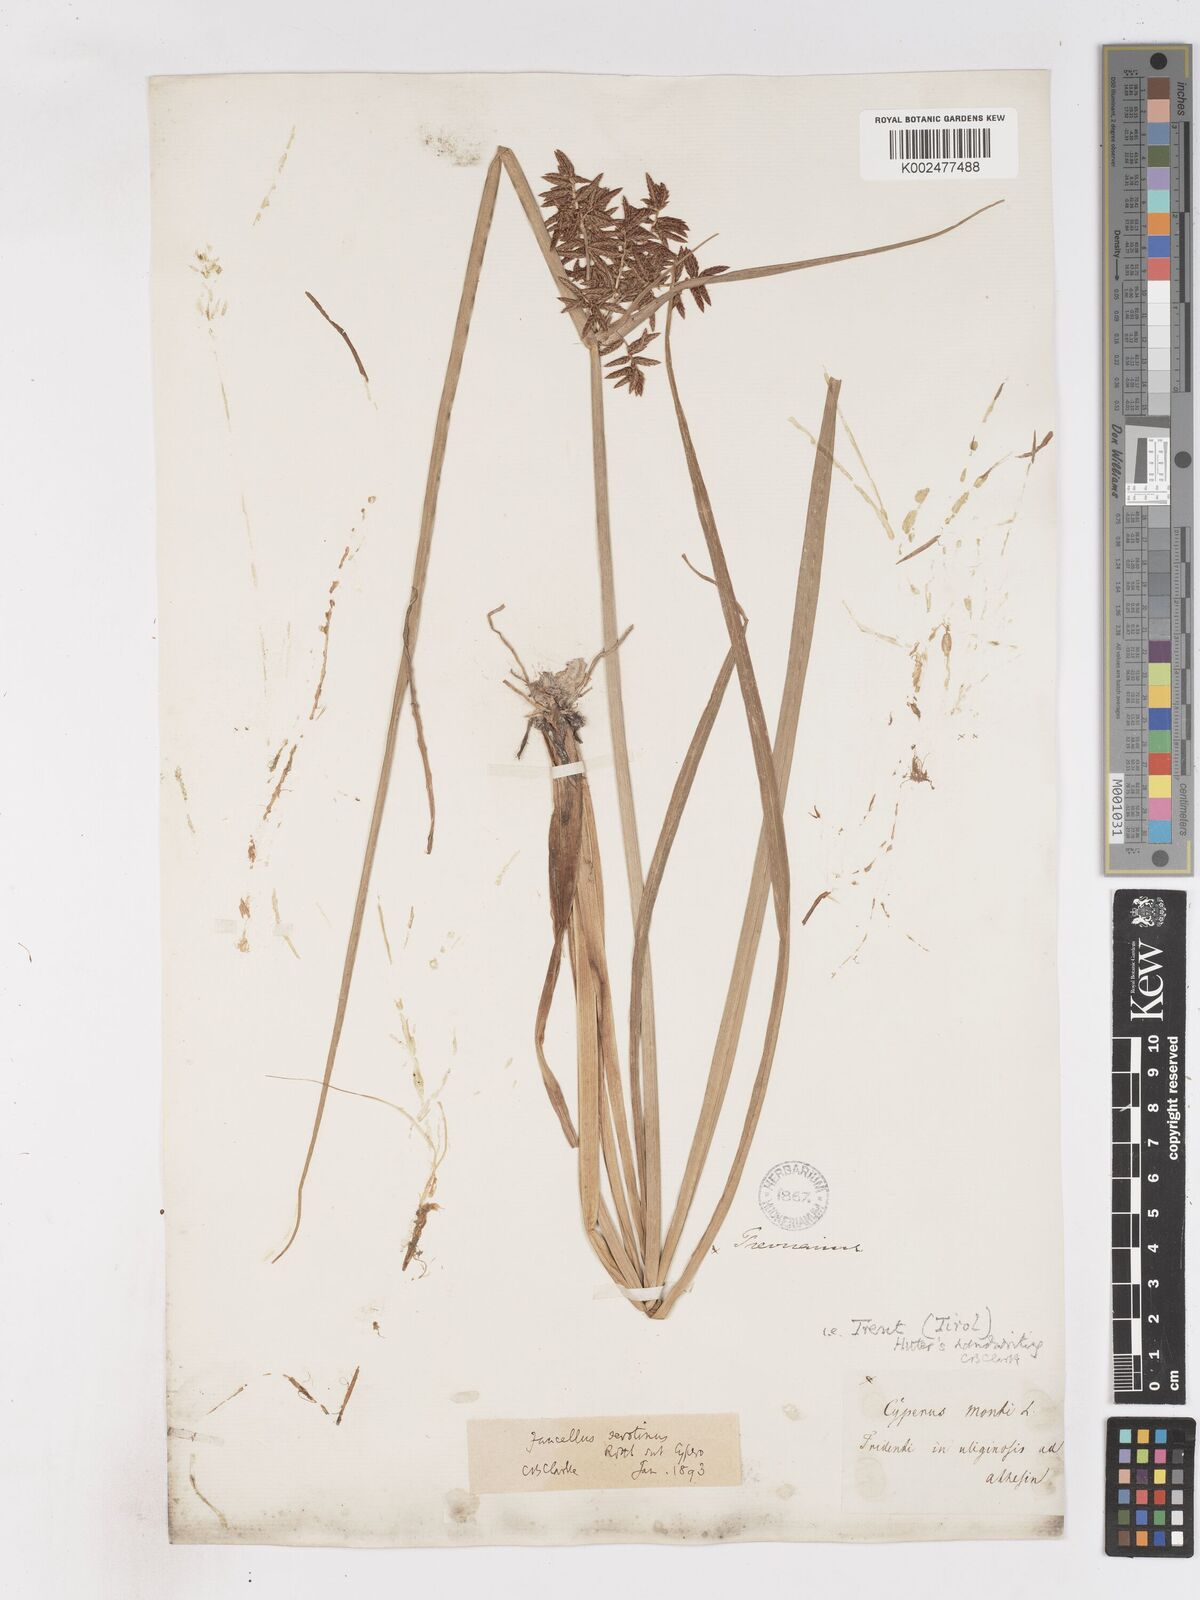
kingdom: Plantae
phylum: Tracheophyta
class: Liliopsida
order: Poales
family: Cyperaceae
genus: Cyperus
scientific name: Cyperus serotinus
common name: Tidalmarsh flatsedge
